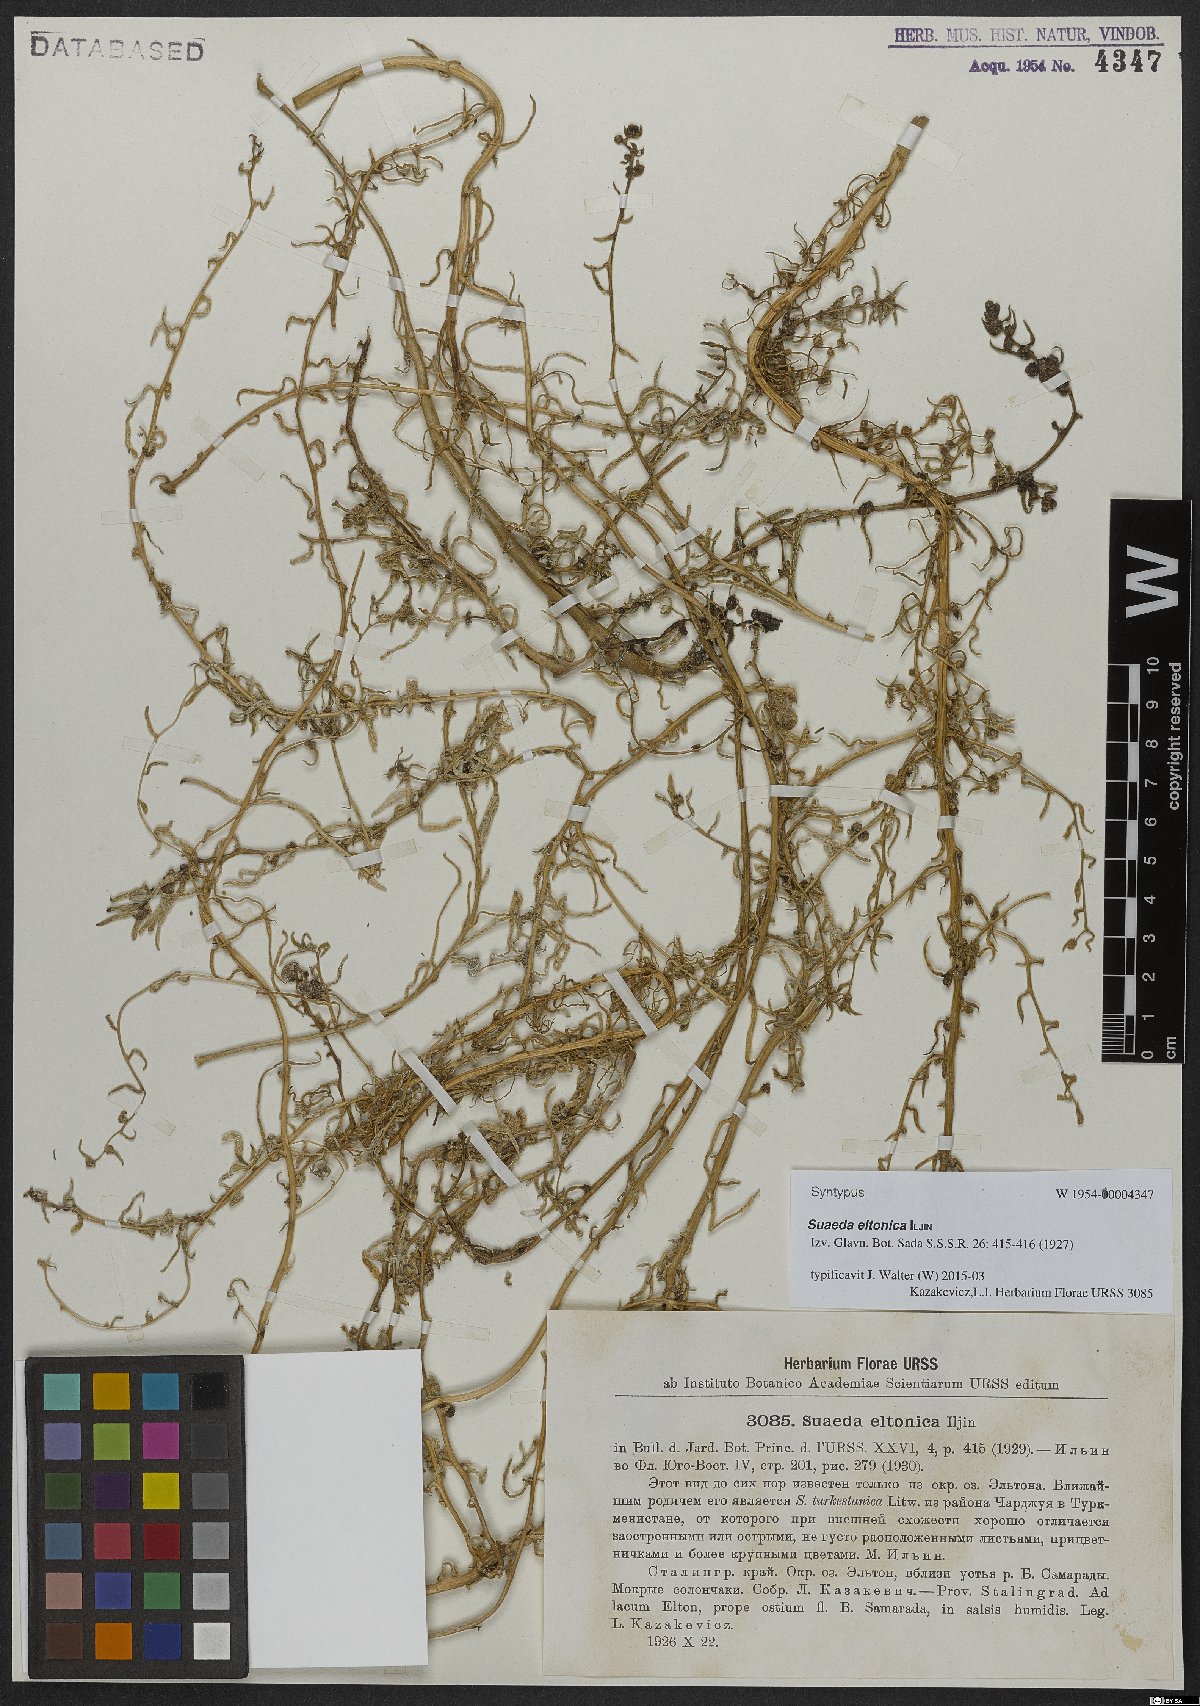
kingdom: Plantae
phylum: Tracheophyta
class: Magnoliopsida
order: Caryophyllales
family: Amaranthaceae
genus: Suaeda
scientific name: Suaeda eltonica
